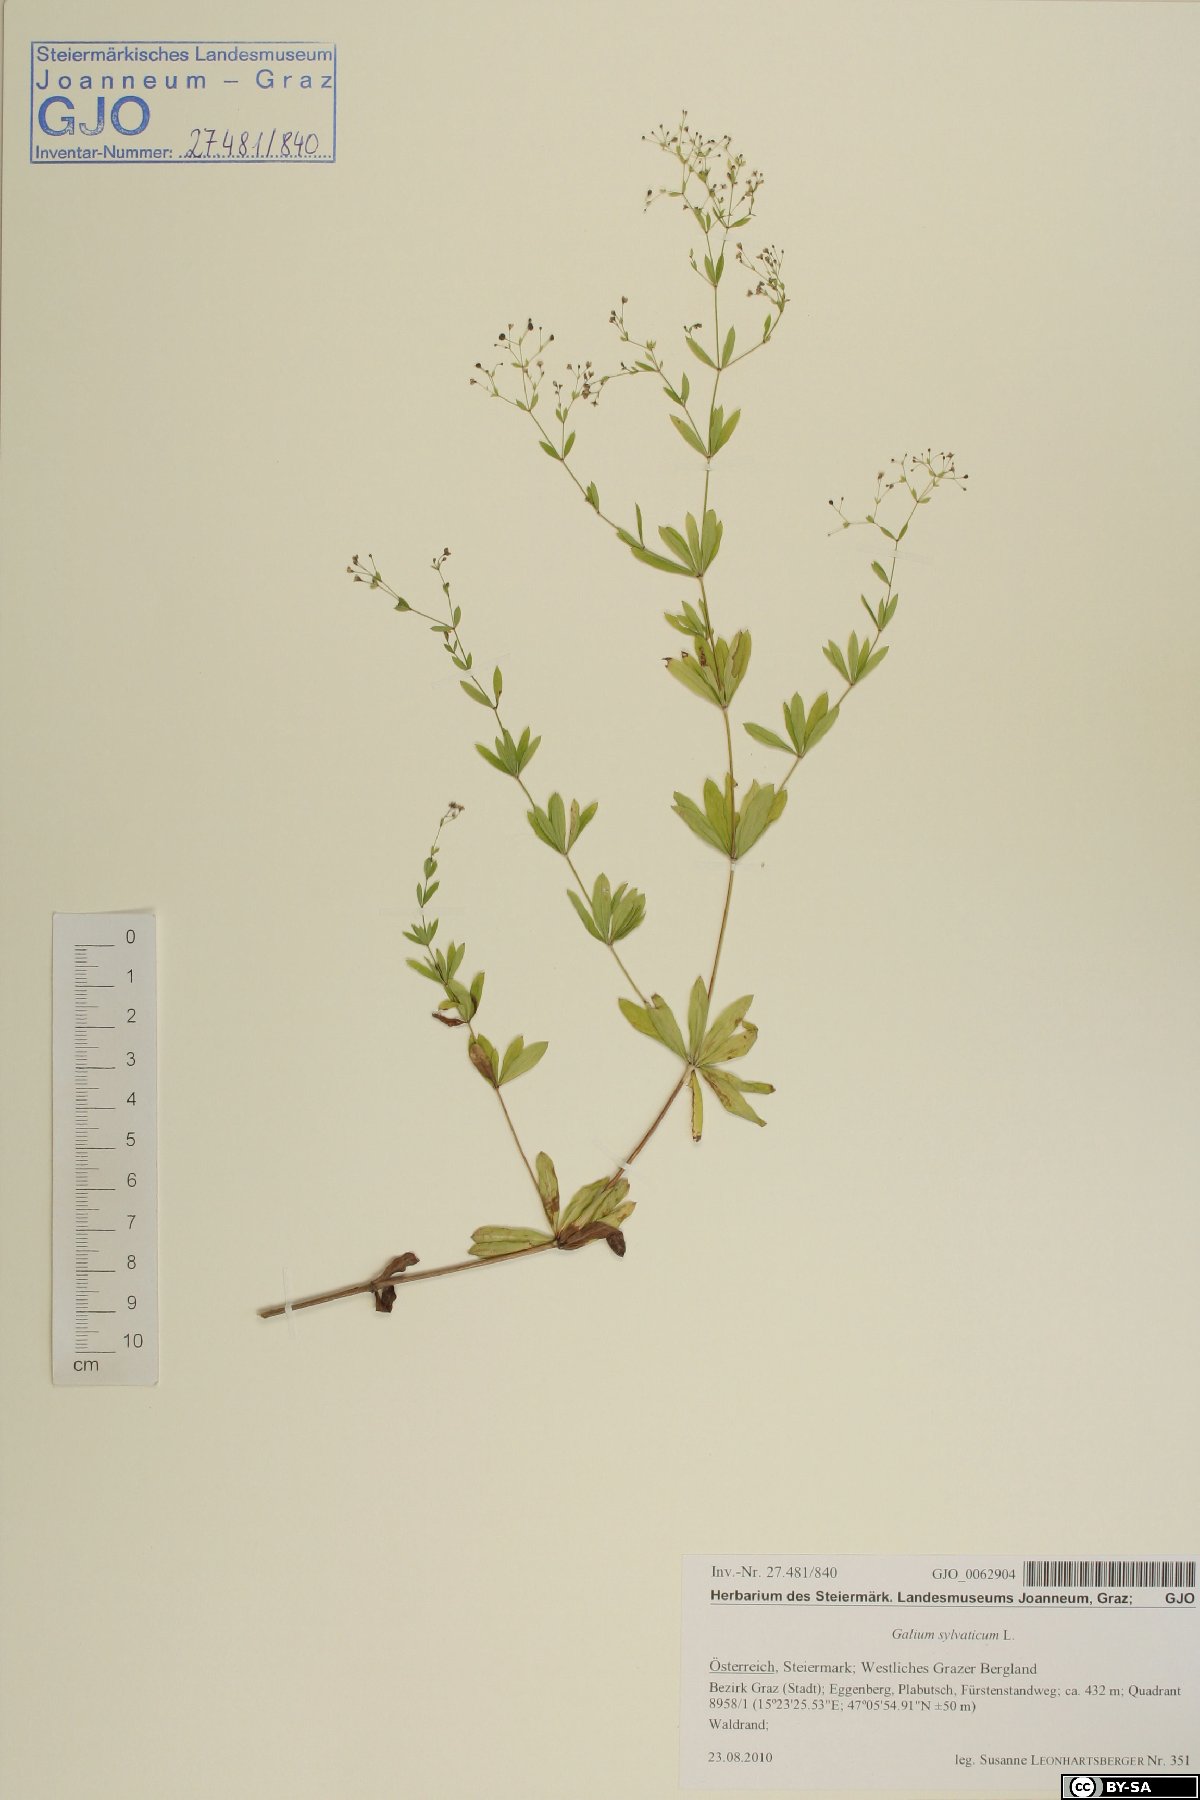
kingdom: Plantae
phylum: Tracheophyta
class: Magnoliopsida
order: Gentianales
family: Rubiaceae
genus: Galium
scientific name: Galium sylvaticum
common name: Wood bedstraw
